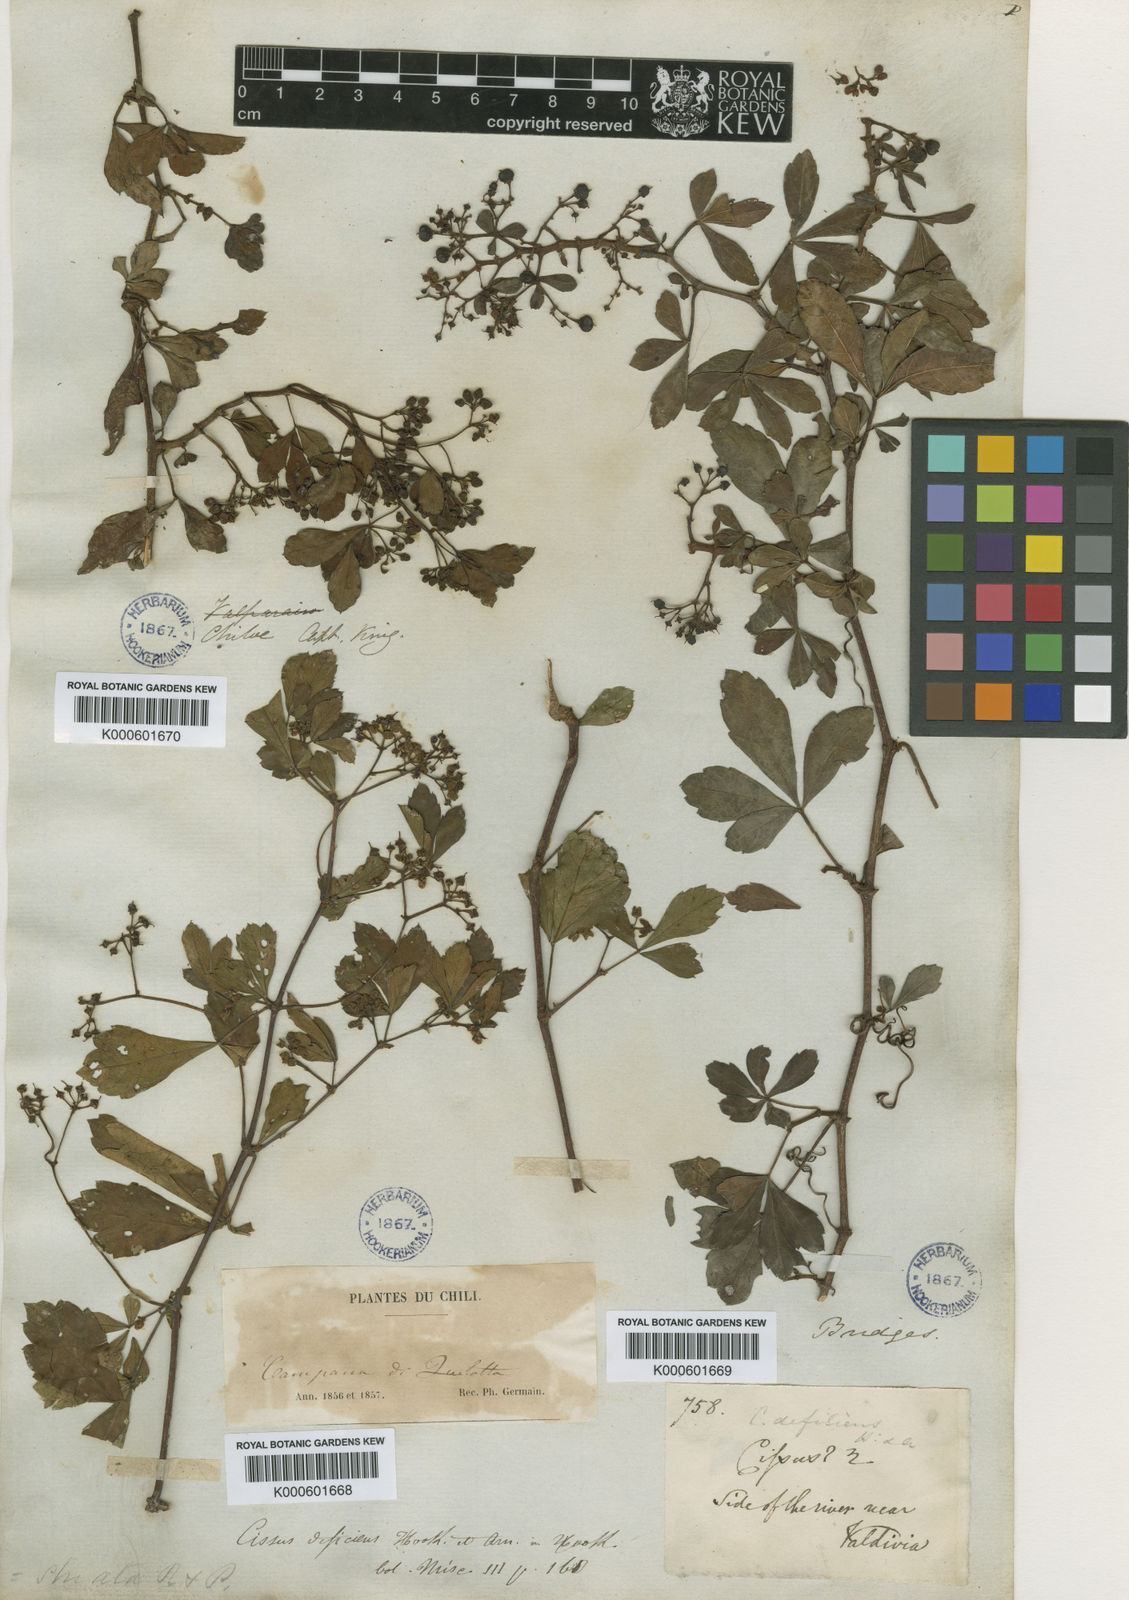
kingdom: Plantae
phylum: Tracheophyta
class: Magnoliopsida
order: Vitales
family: Vitaceae
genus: Clematicissus
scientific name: Clematicissus striata
